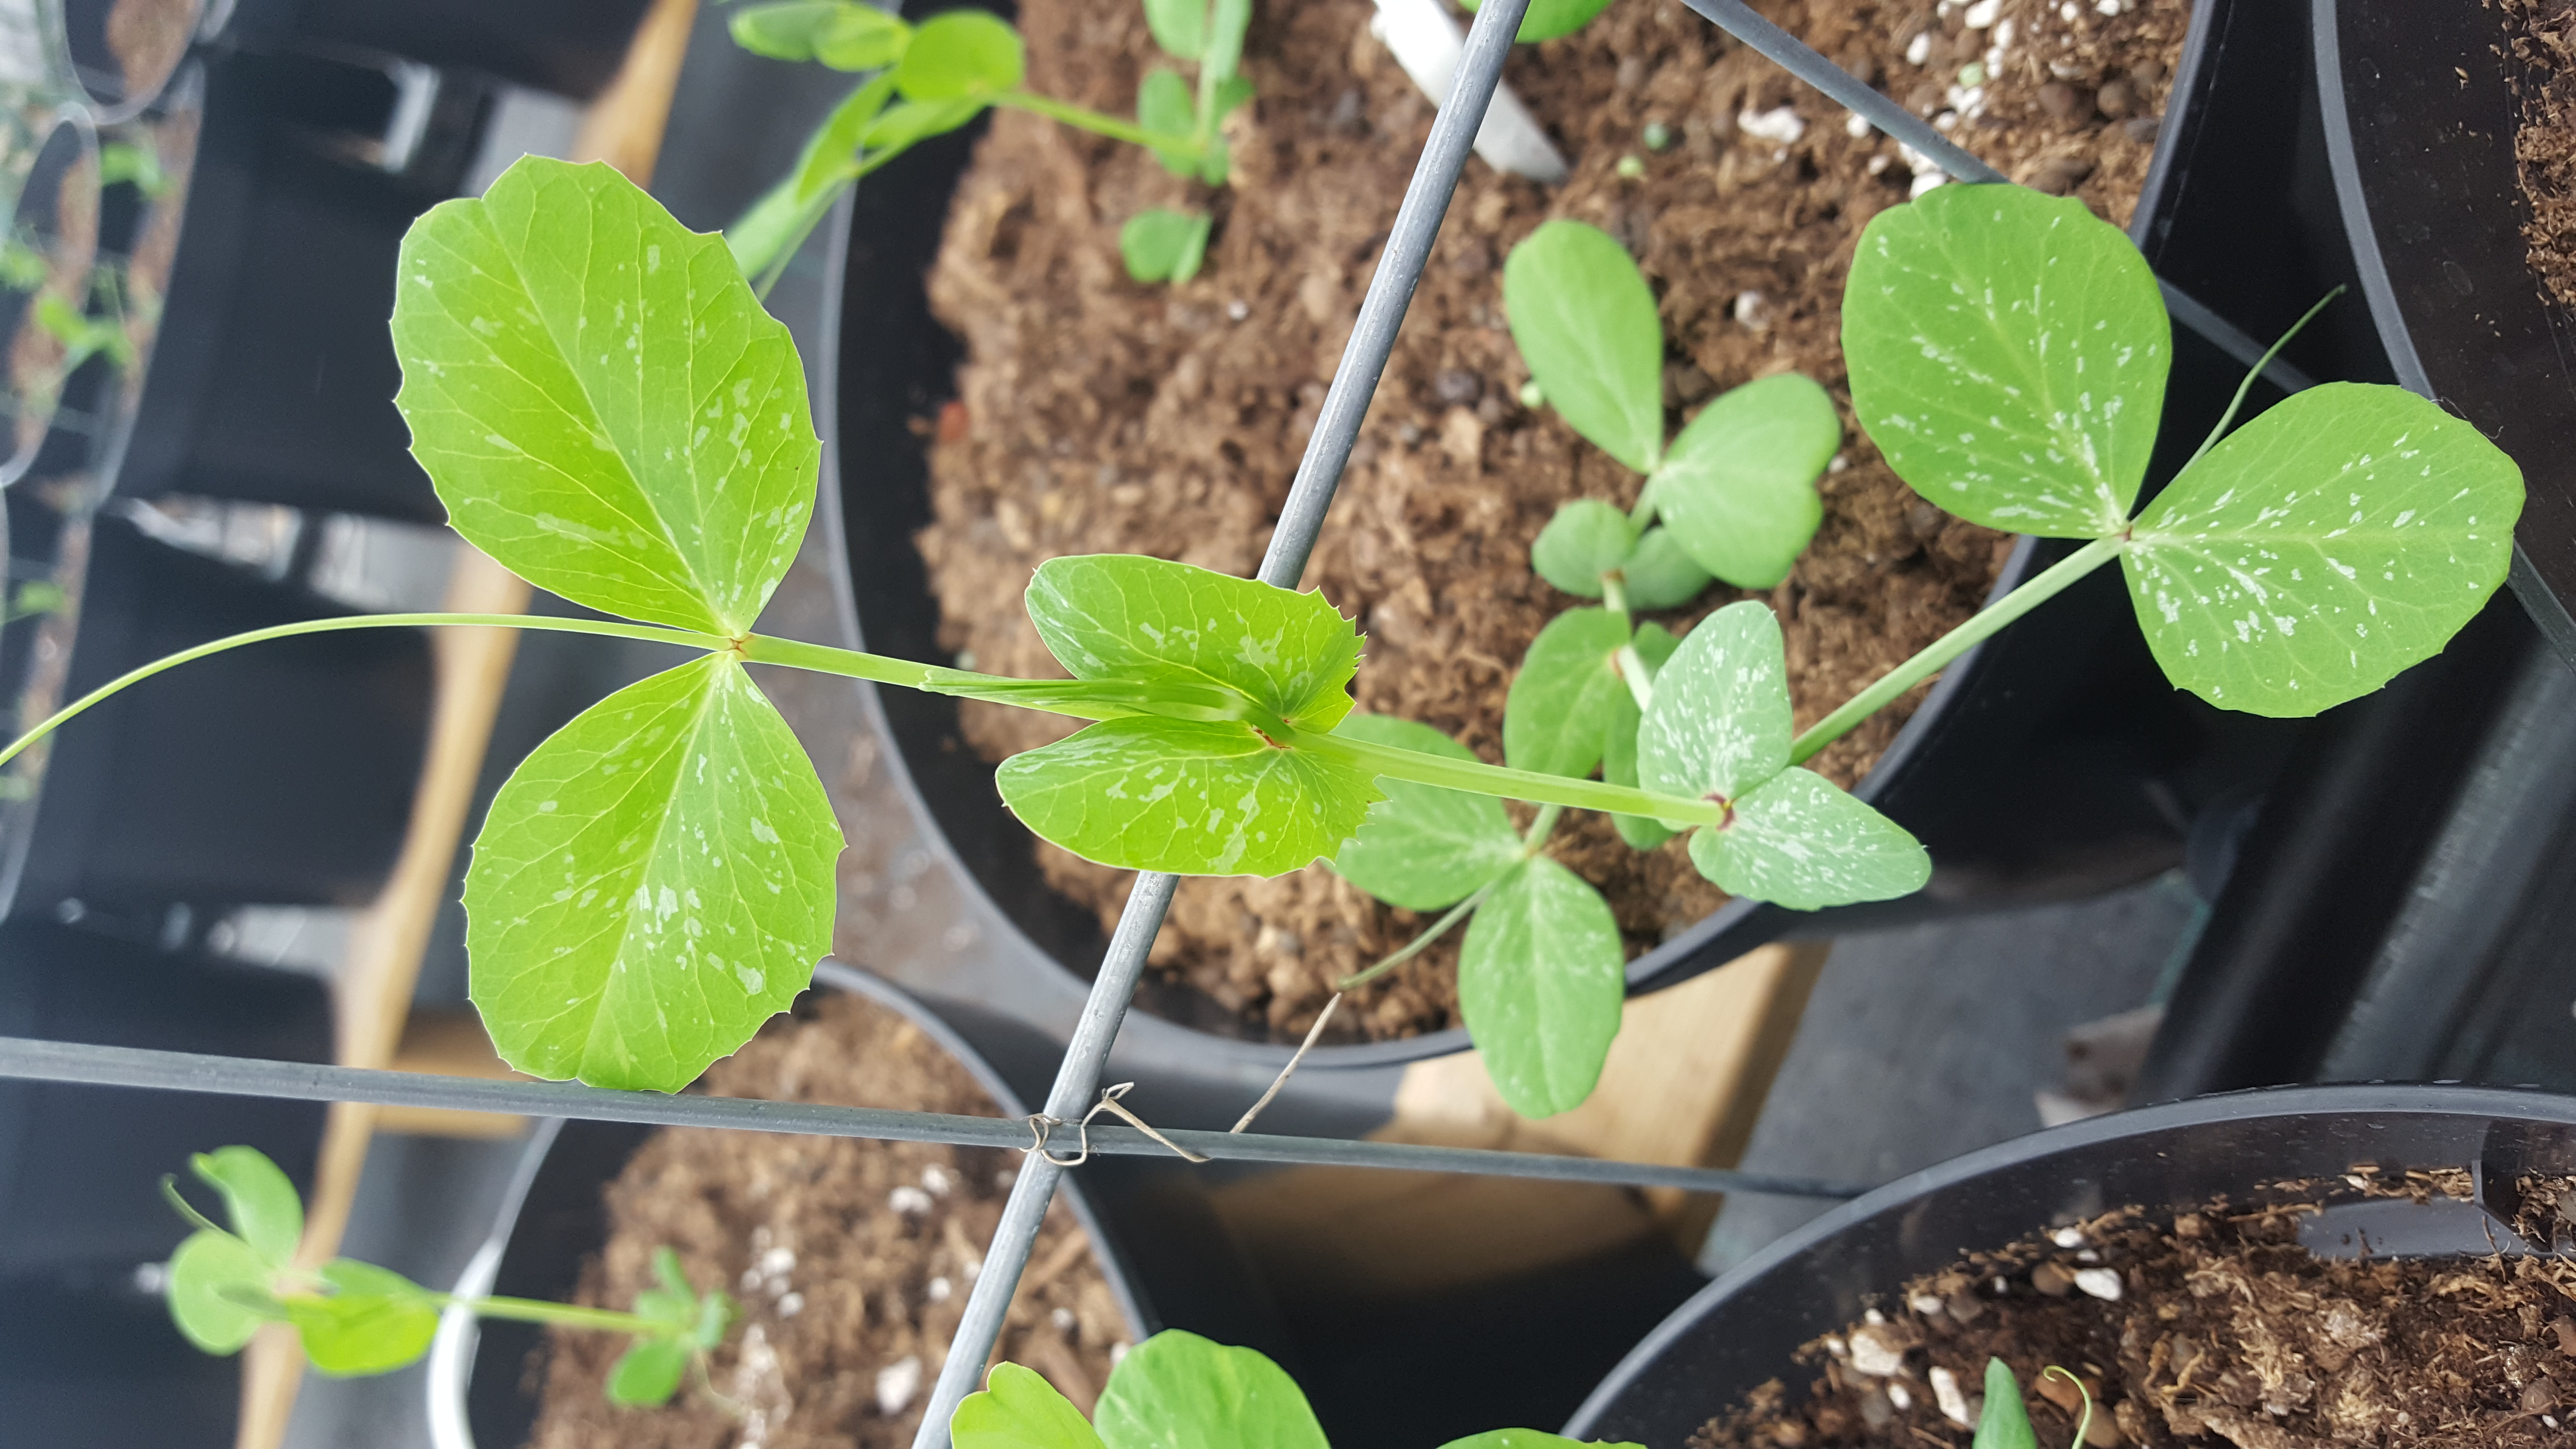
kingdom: Plantae
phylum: Tracheophyta
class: Magnoliopsida
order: Fabales
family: Fabaceae
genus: Lathyrus
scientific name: Lathyrus oleraceus
